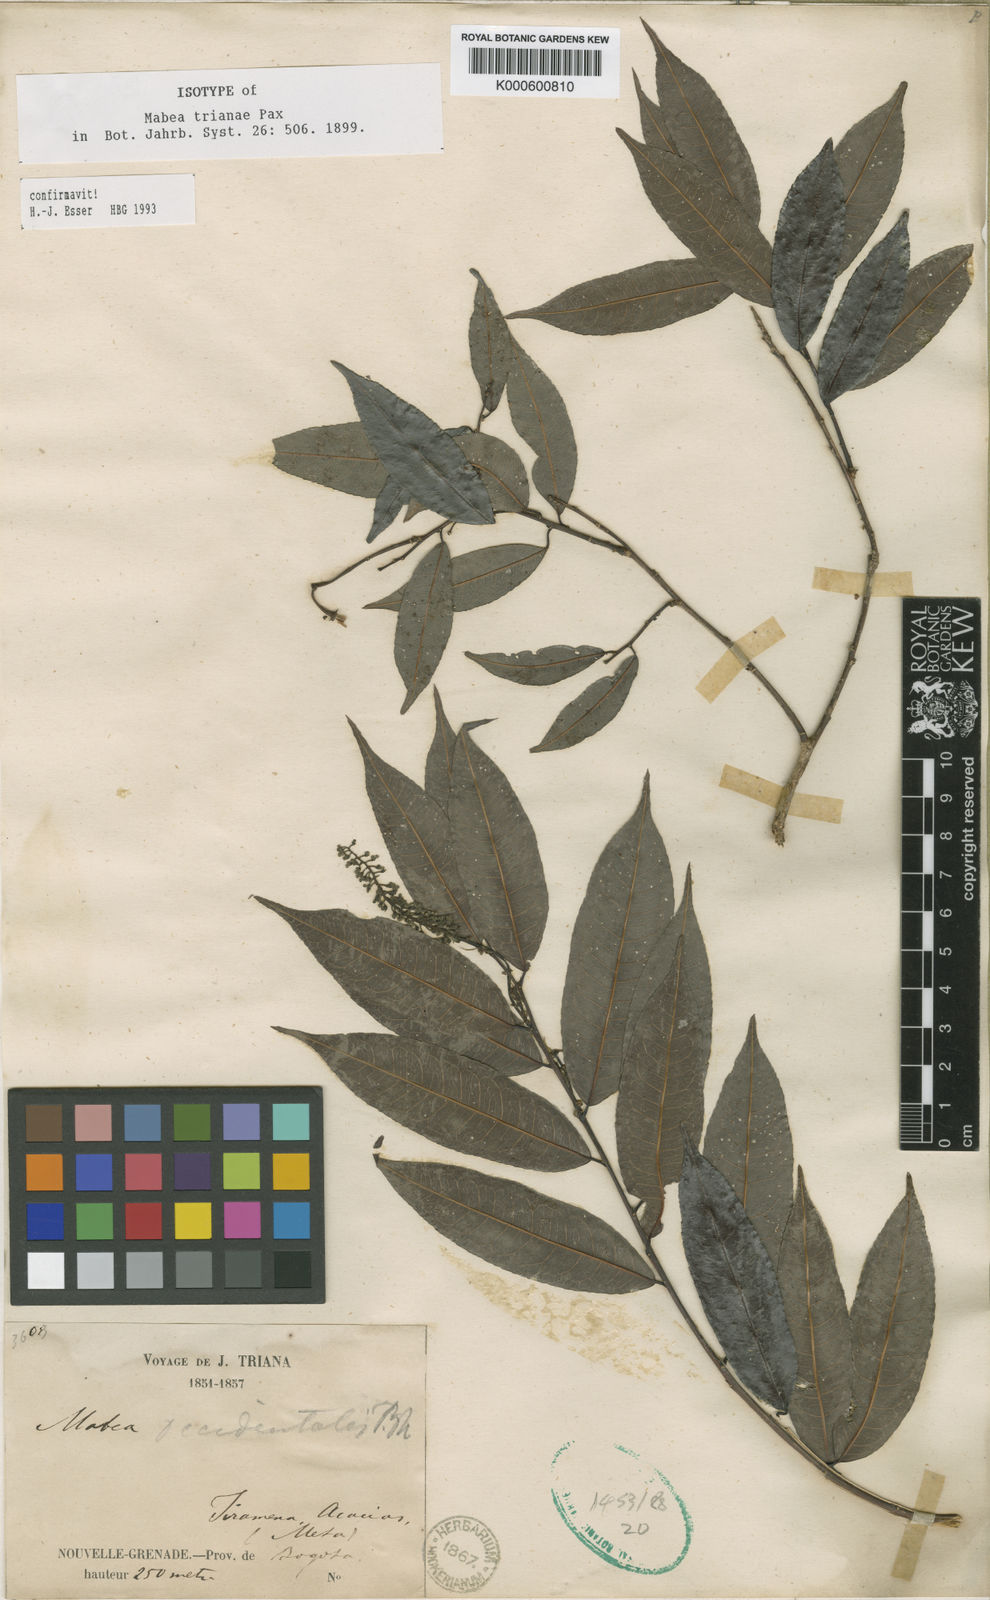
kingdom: Plantae
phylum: Tracheophyta
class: Magnoliopsida
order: Malpighiales
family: Euphorbiaceae
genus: Mabea
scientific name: Mabea trianae
